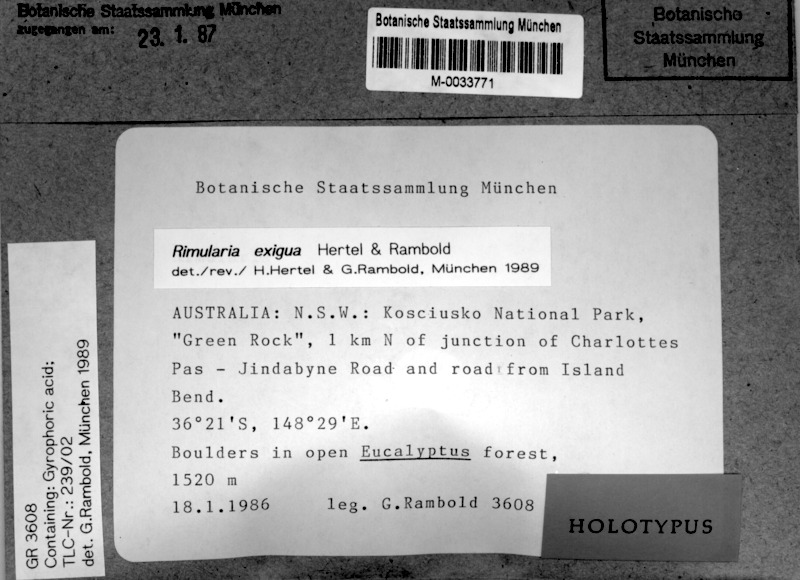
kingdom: Fungi
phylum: Ascomycota
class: Lecanoromycetes
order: Baeomycetales
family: Trapeliaceae
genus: Lambiella
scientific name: Lambiella exigua
